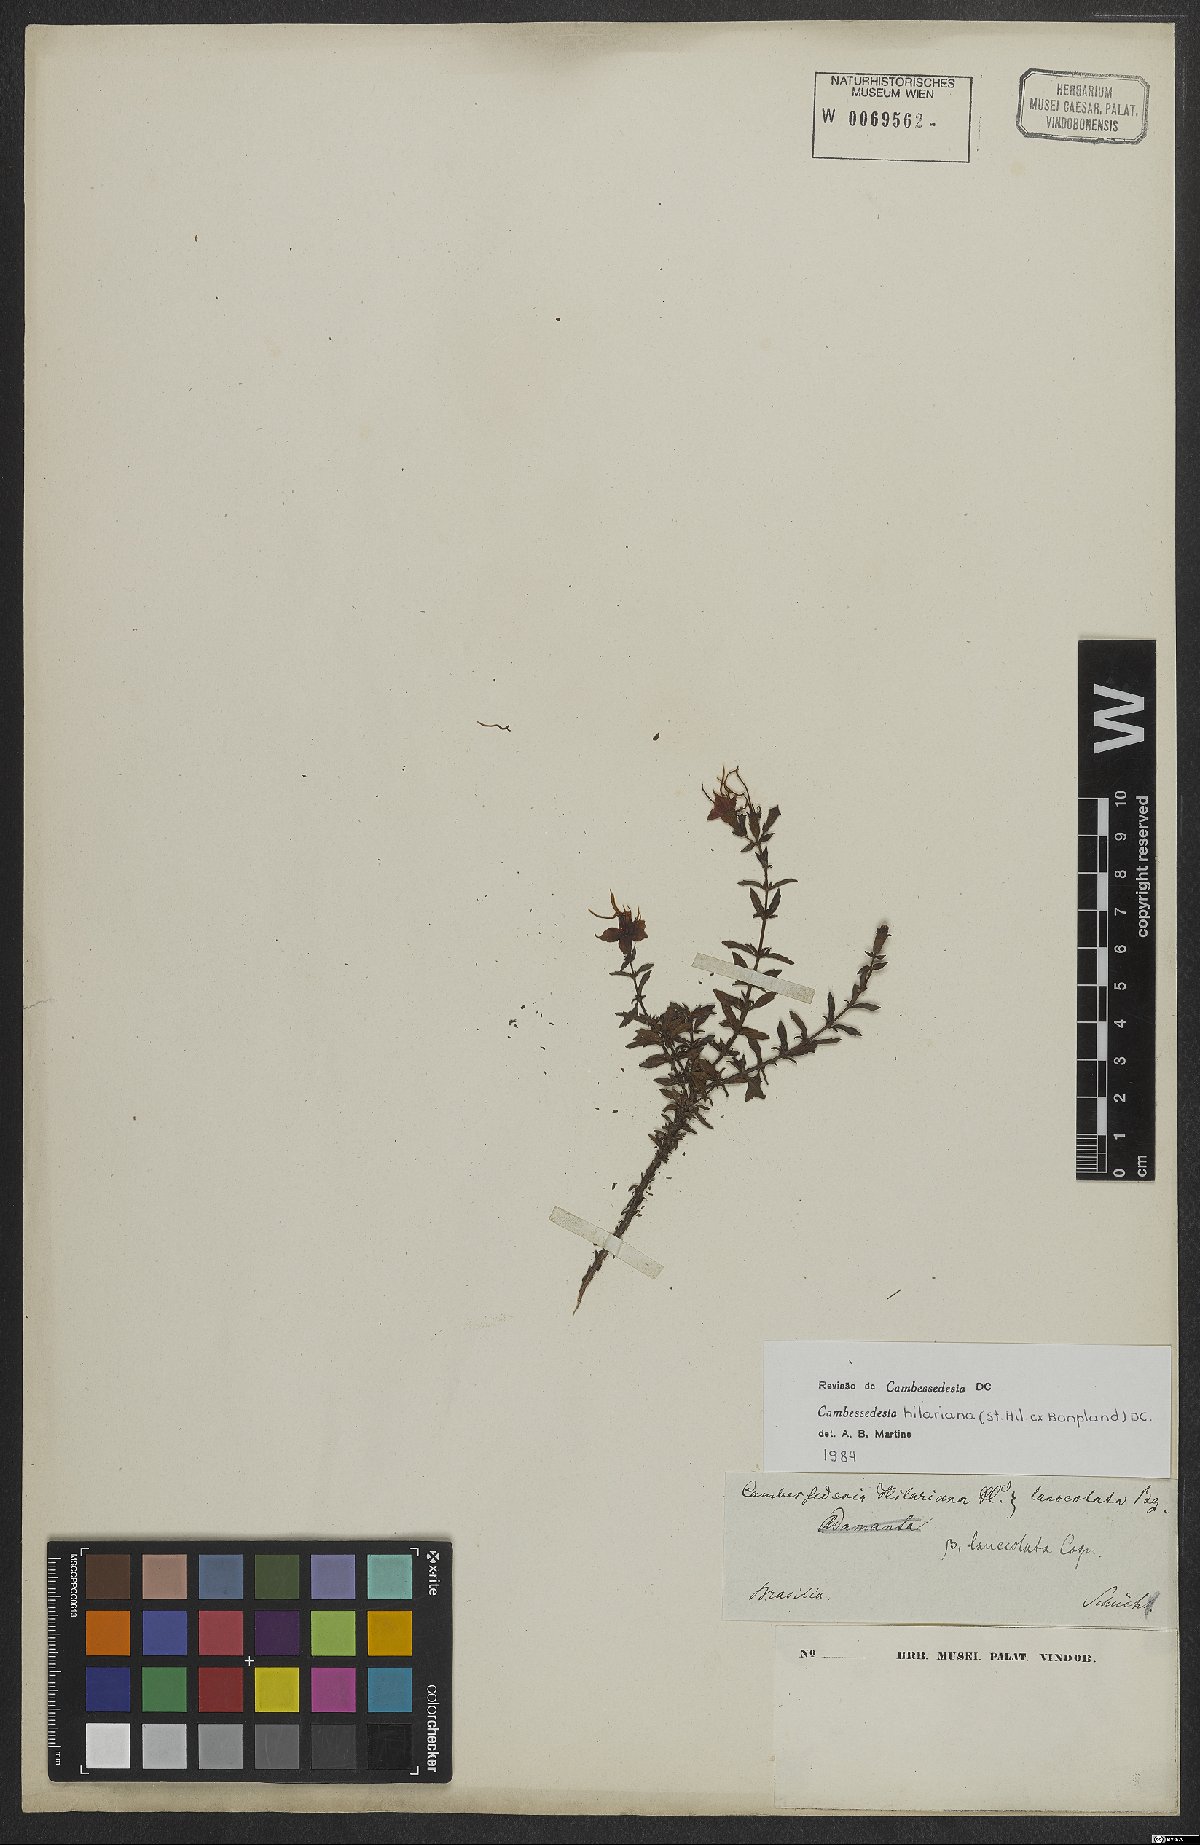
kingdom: Plantae
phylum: Tracheophyta
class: Magnoliopsida
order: Myrtales
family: Melastomataceae
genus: Cambessedesia
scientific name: Cambessedesia hilariana
